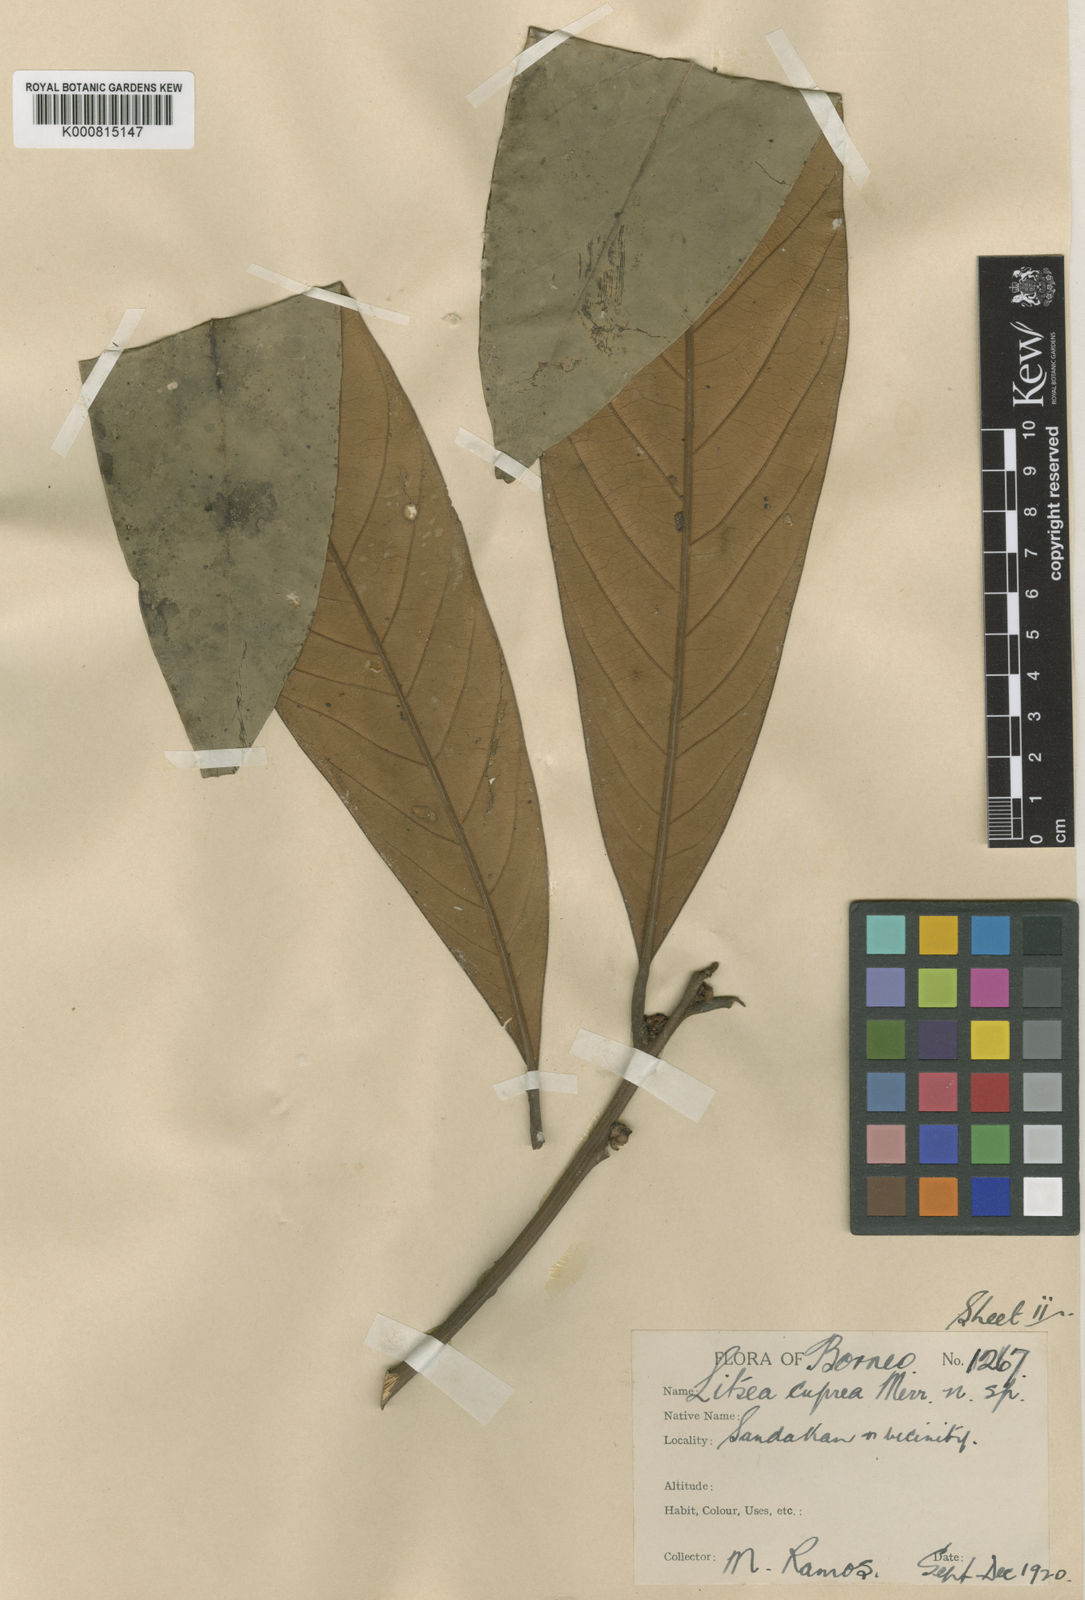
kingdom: Plantae
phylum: Tracheophyta
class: Magnoliopsida
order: Laurales
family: Lauraceae
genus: Litsea
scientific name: Litsea cuprea
